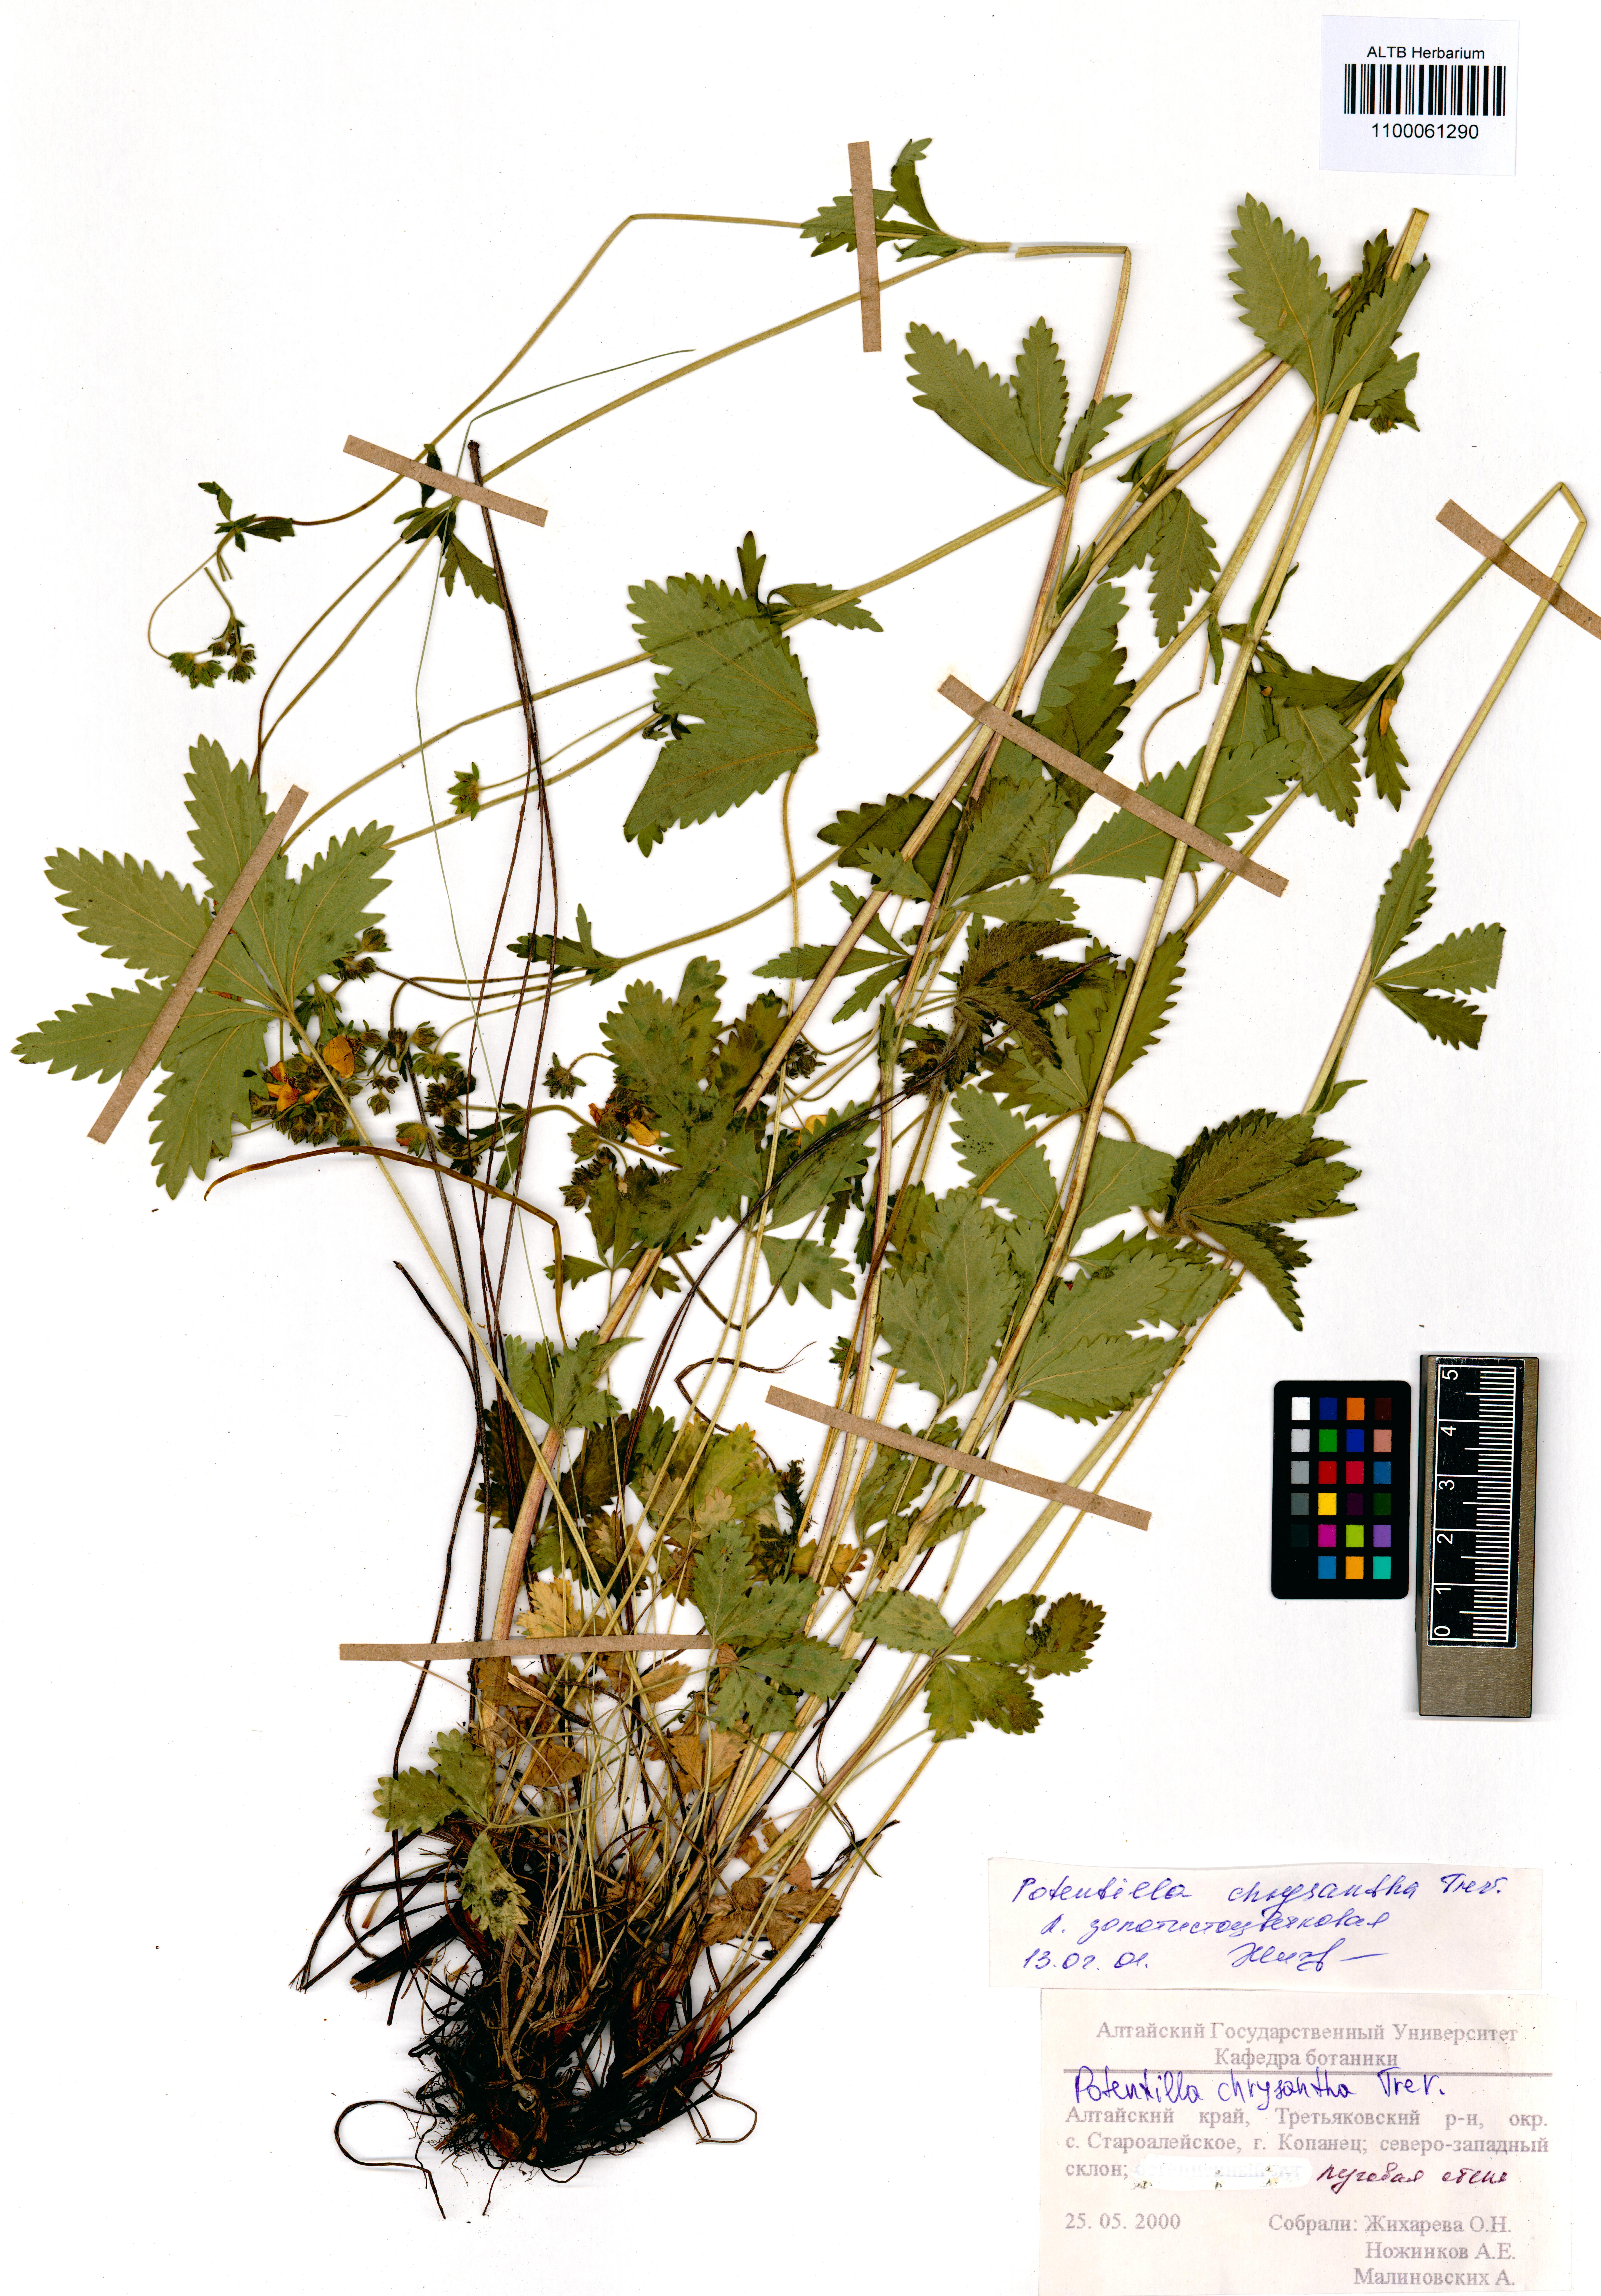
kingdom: Plantae
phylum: Tracheophyta
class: Magnoliopsida
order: Rosales
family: Rosaceae
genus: Potentilla
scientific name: Potentilla chrysantha
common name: Thuringian cinquefoil
